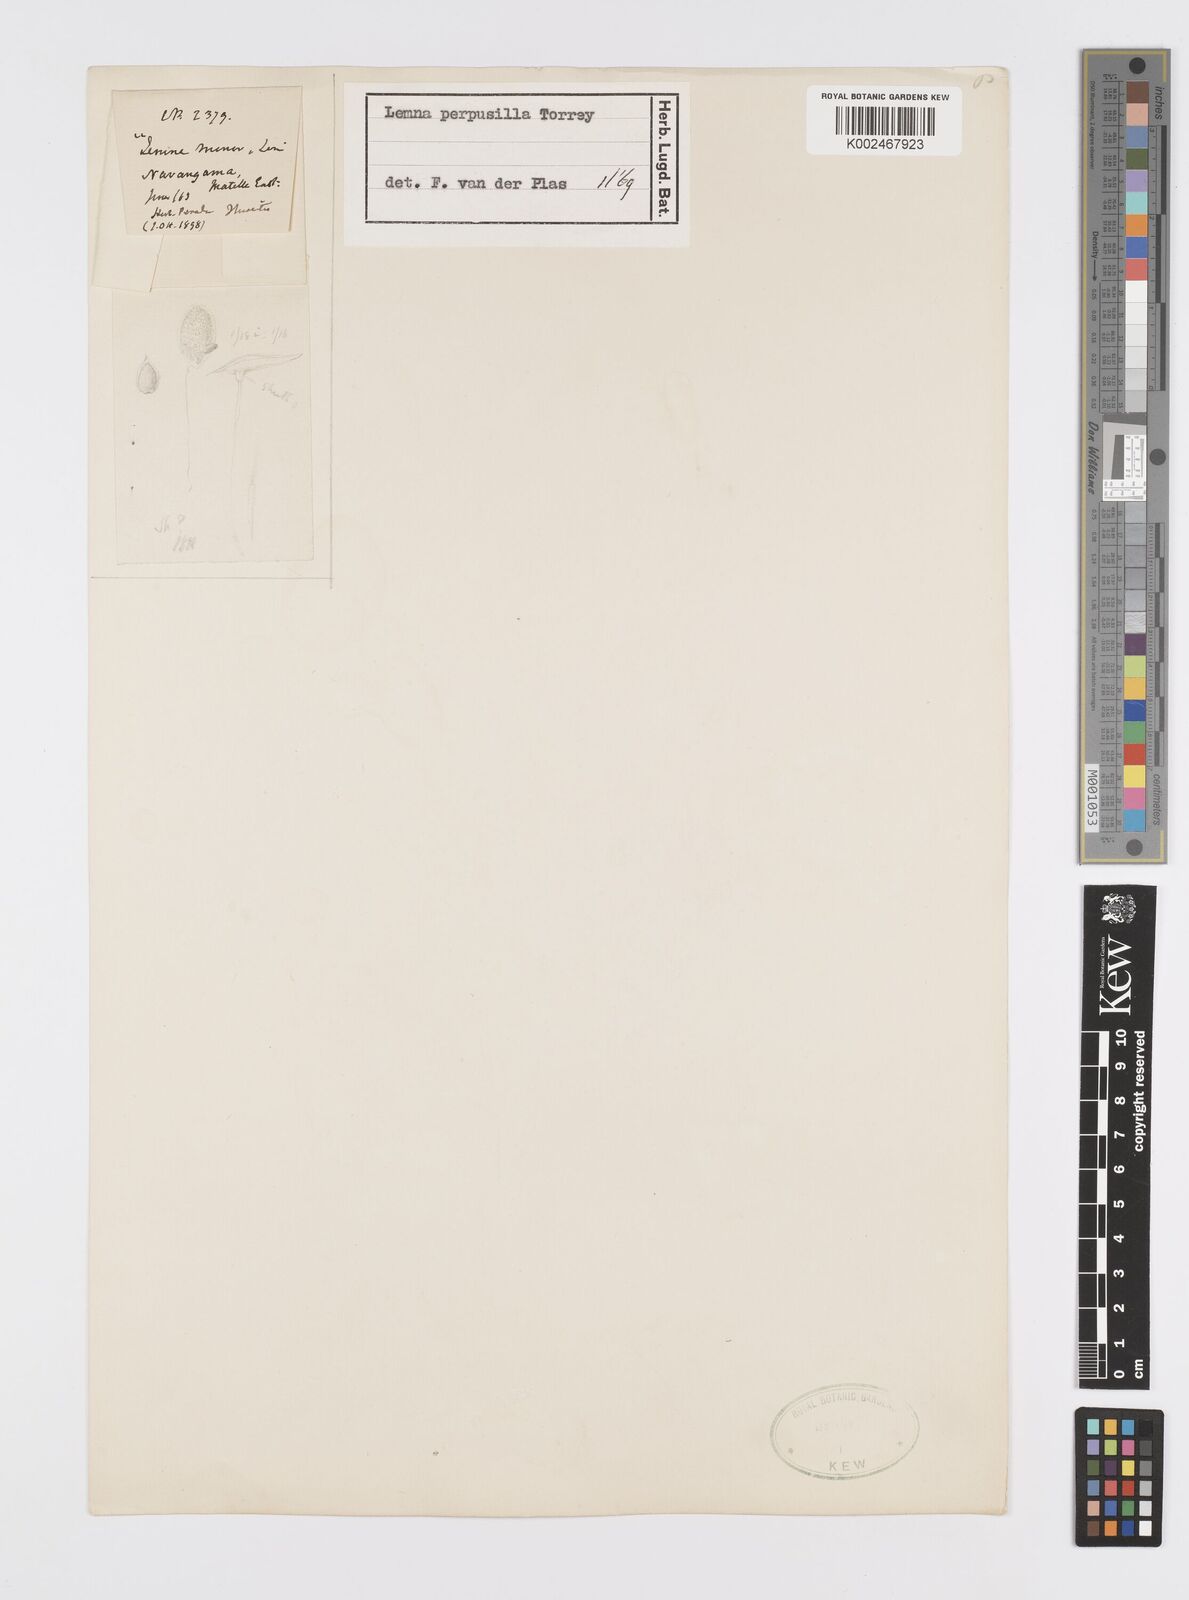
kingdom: Plantae
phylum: Tracheophyta
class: Liliopsida
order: Alismatales
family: Araceae
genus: Lemna
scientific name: Lemna perpusilla
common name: Duckweed
